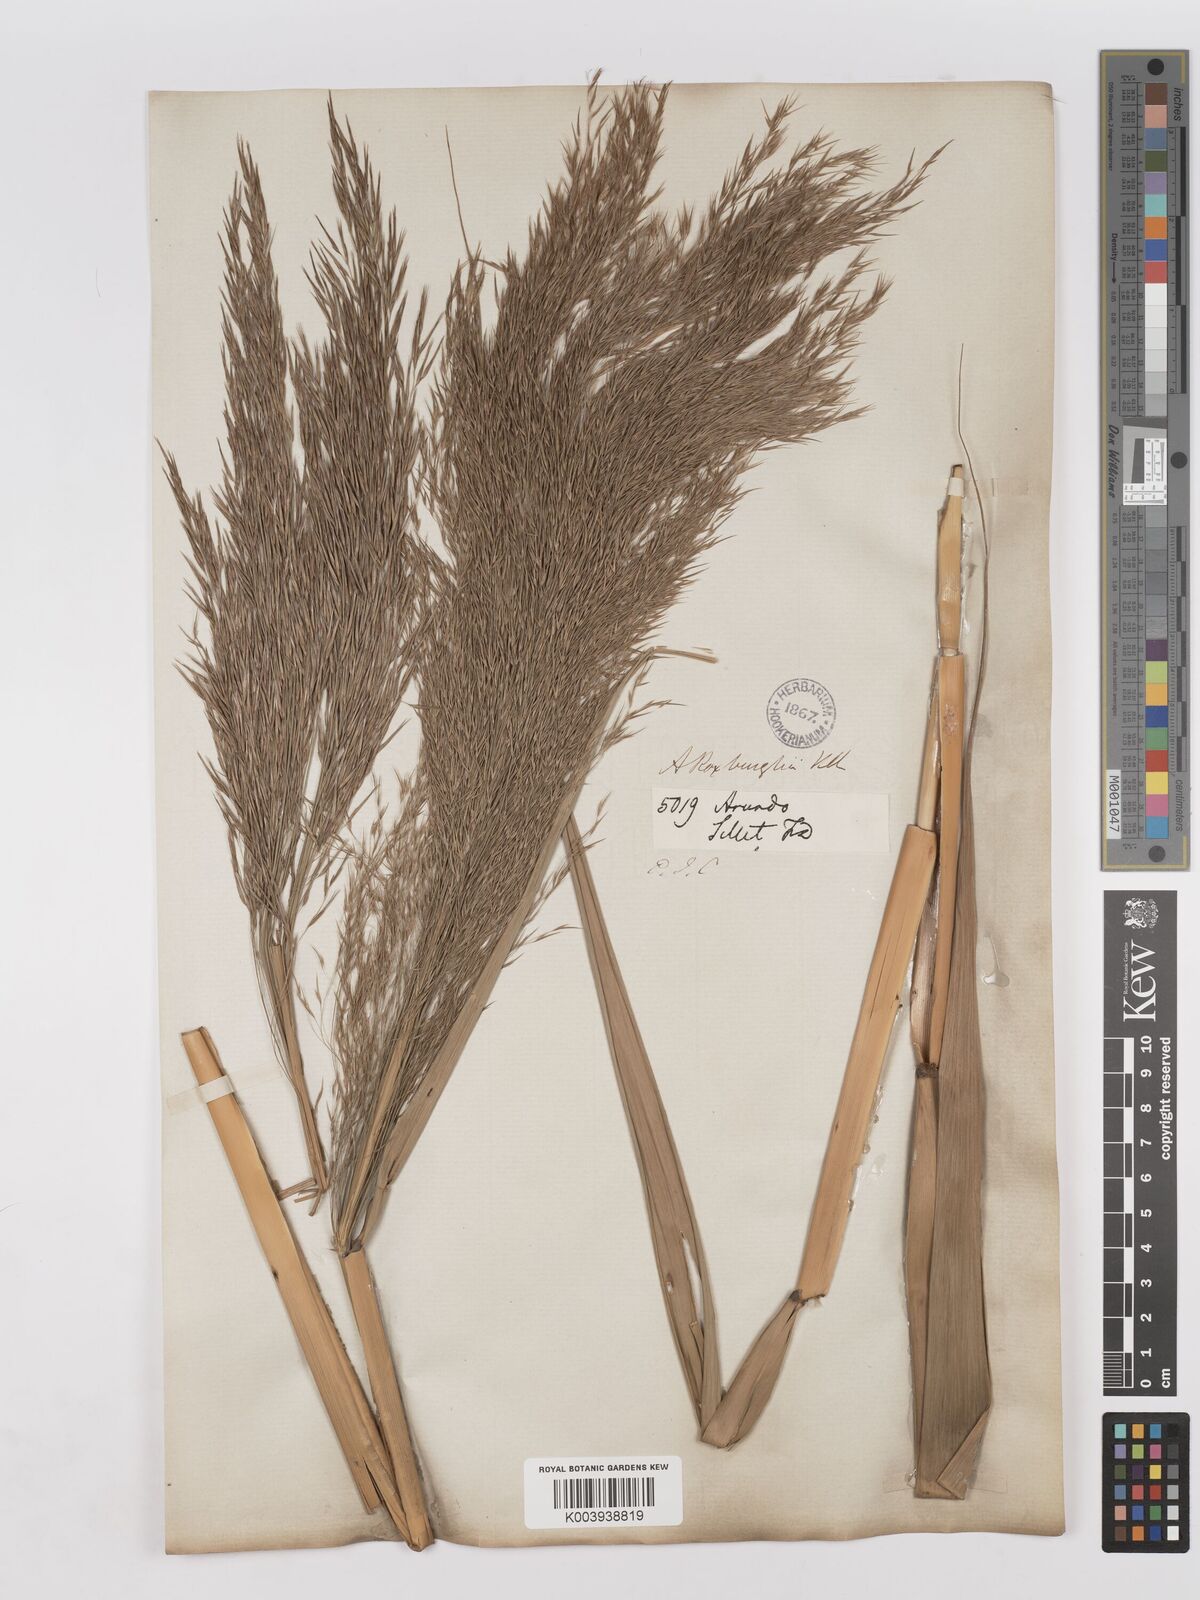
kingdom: Plantae
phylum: Tracheophyta
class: Liliopsida
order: Poales
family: Poaceae
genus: Phragmites
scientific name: Phragmites karka
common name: Tropical reed
